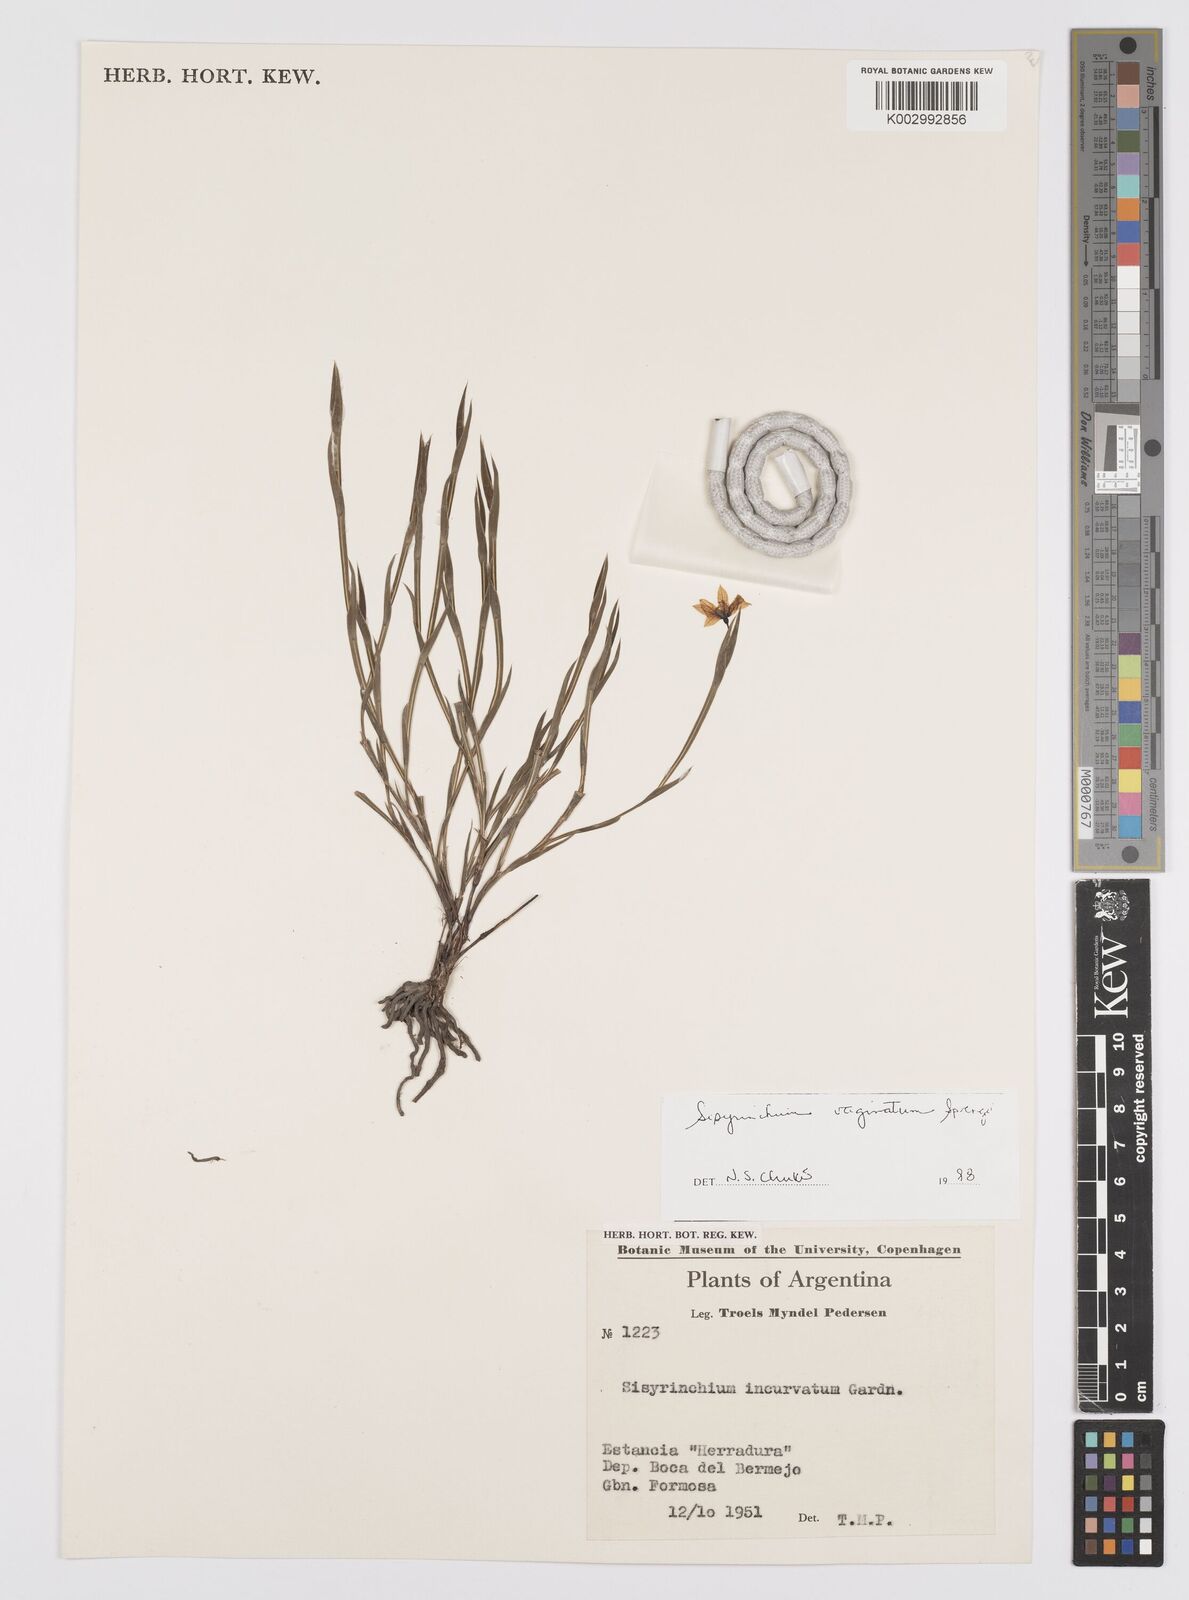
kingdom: Plantae
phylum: Tracheophyta
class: Liliopsida
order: Asparagales
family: Iridaceae
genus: Sisyrinchium
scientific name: Sisyrinchium vaginatum
